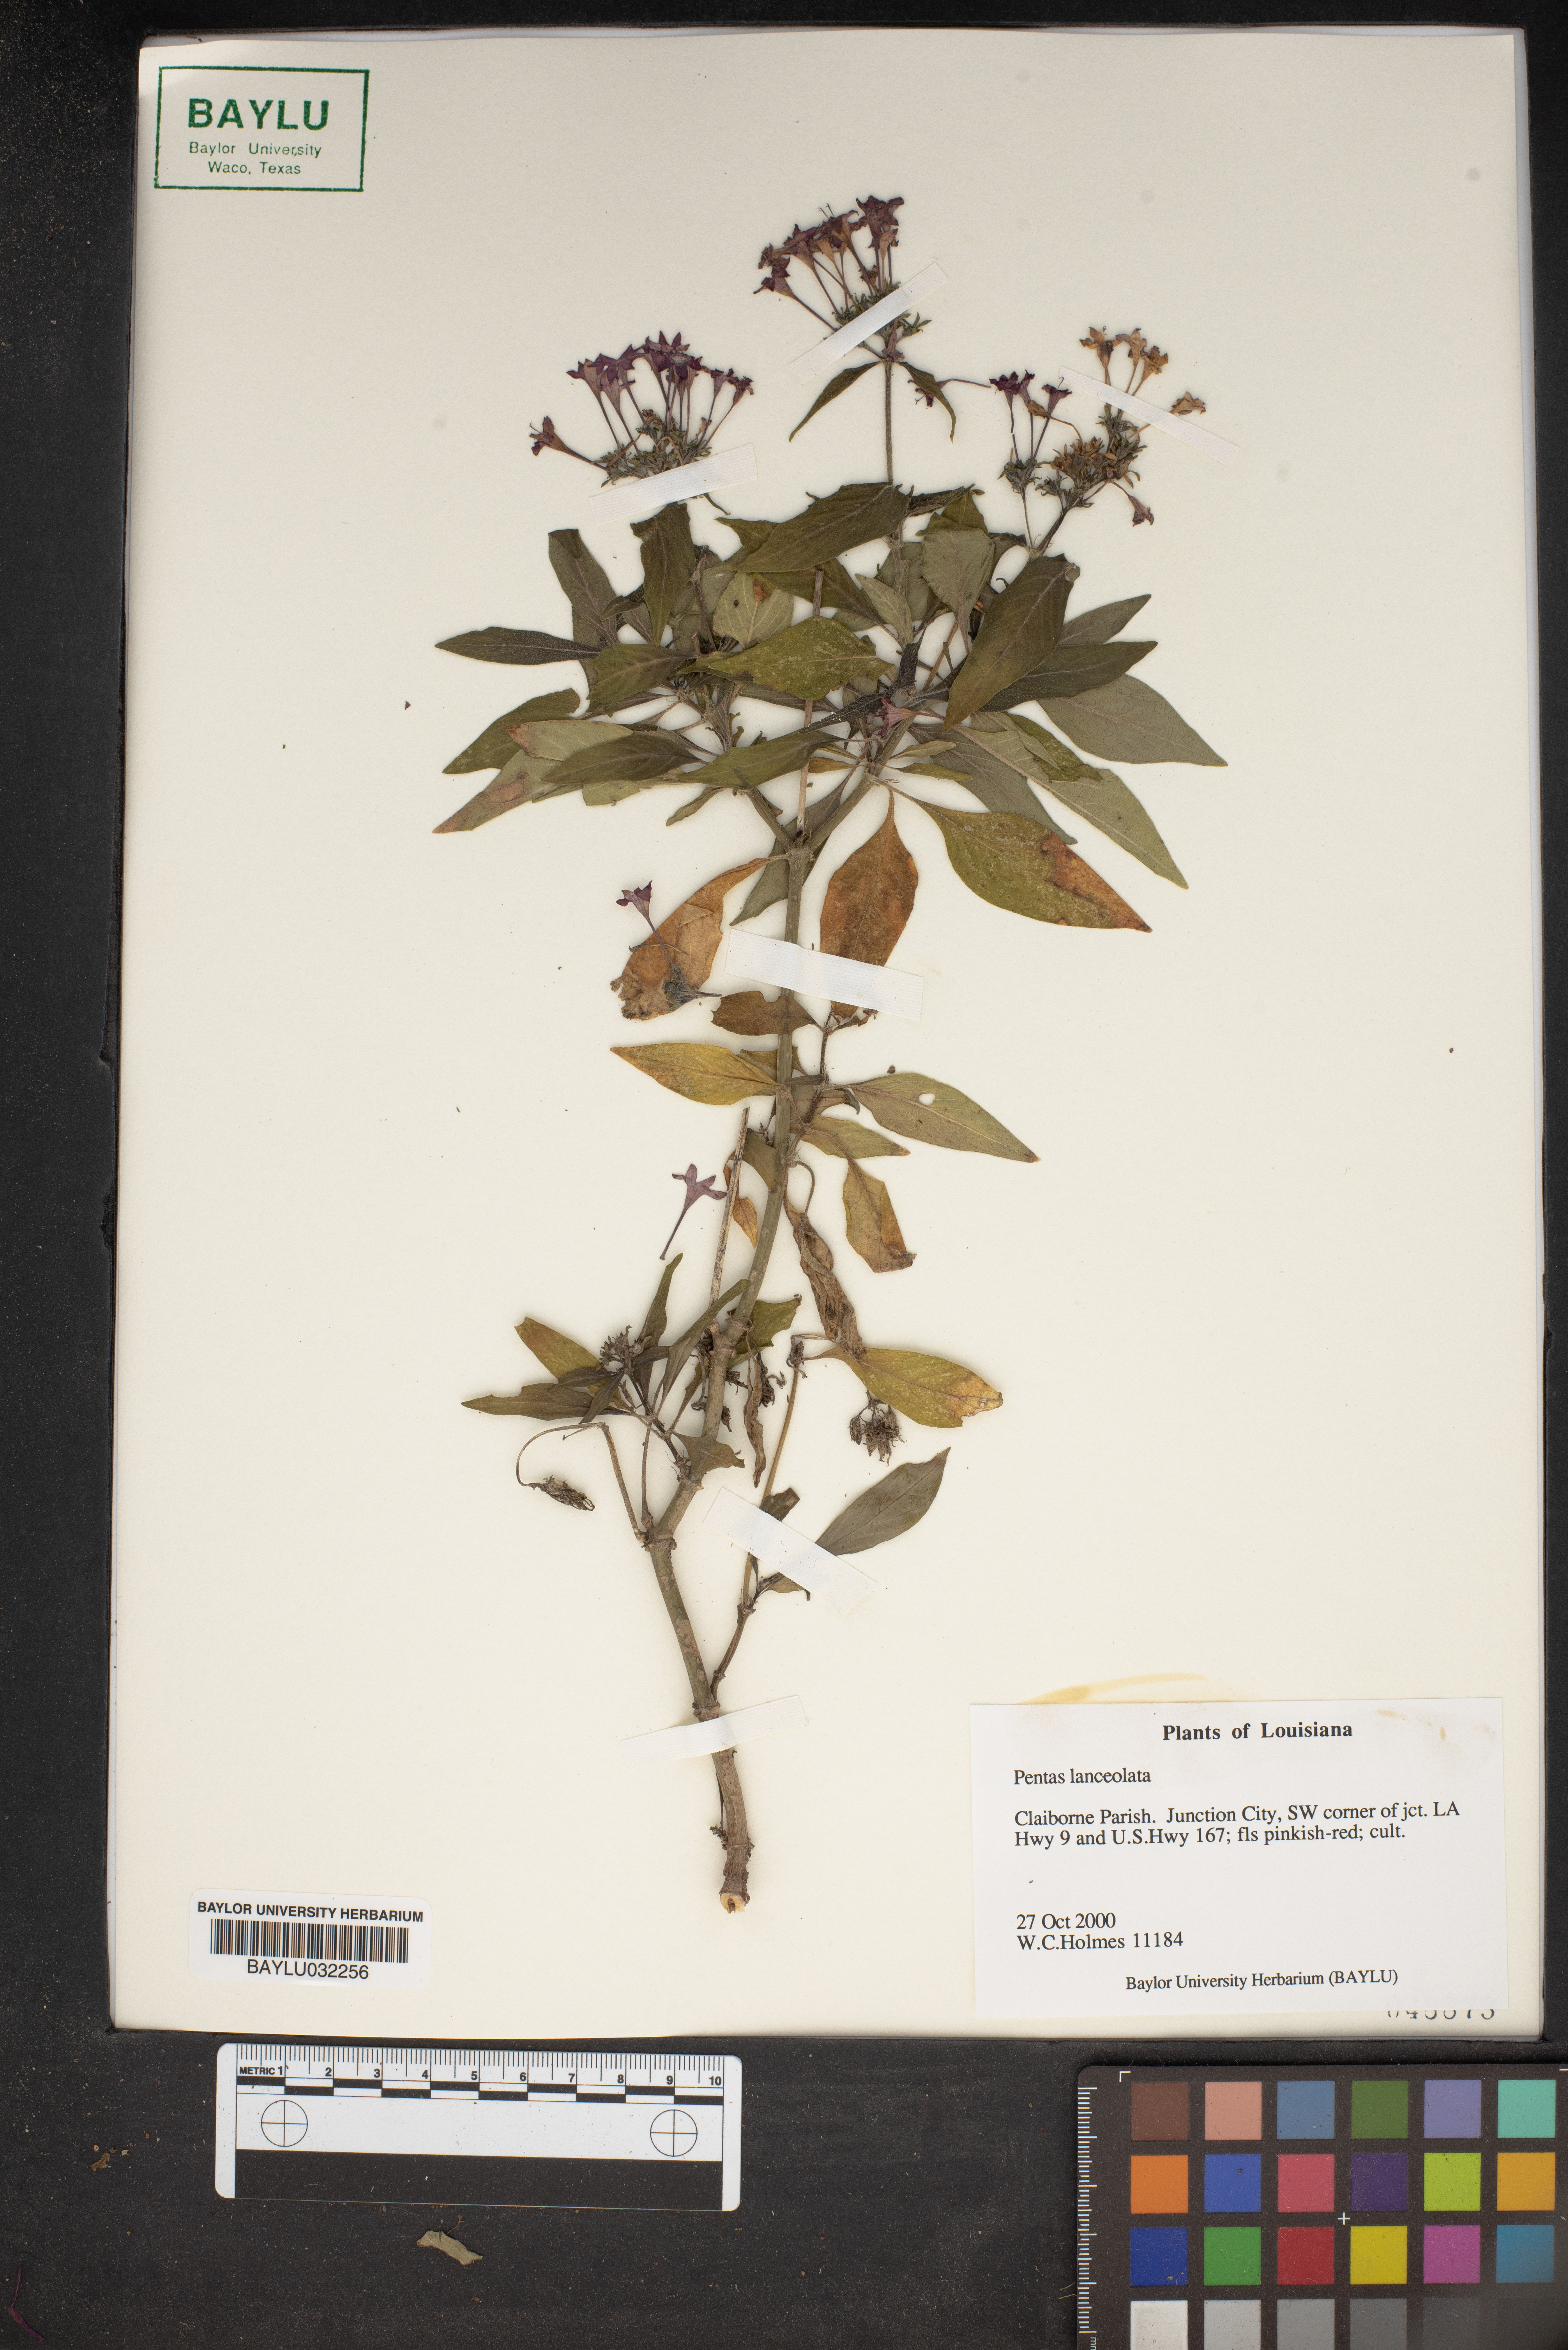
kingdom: Plantae
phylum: Tracheophyta
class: Magnoliopsida
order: Gentianales
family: Rubiaceae
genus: Pentas
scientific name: Pentas lanceolata
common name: Egyptian starcluster
